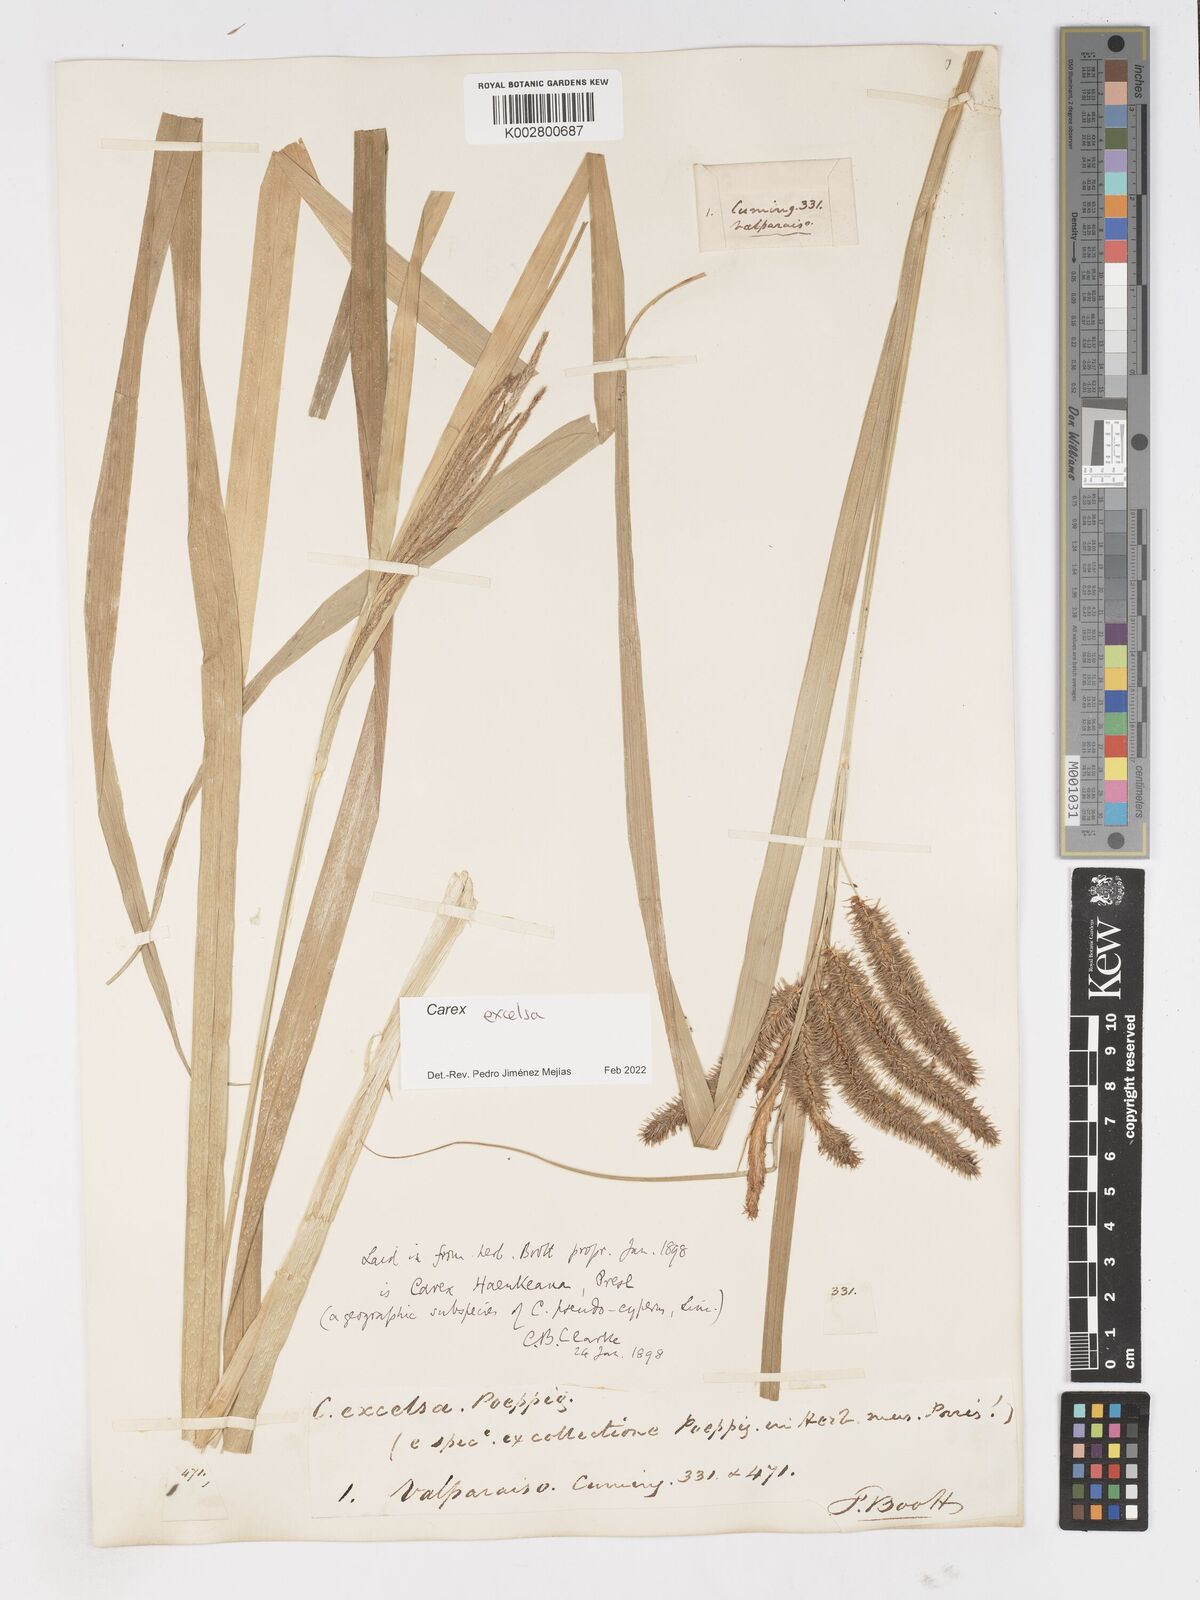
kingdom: Plantae
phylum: Tracheophyta
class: Liliopsida
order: Poales
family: Cyperaceae
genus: Carex
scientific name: Carex excelsa
